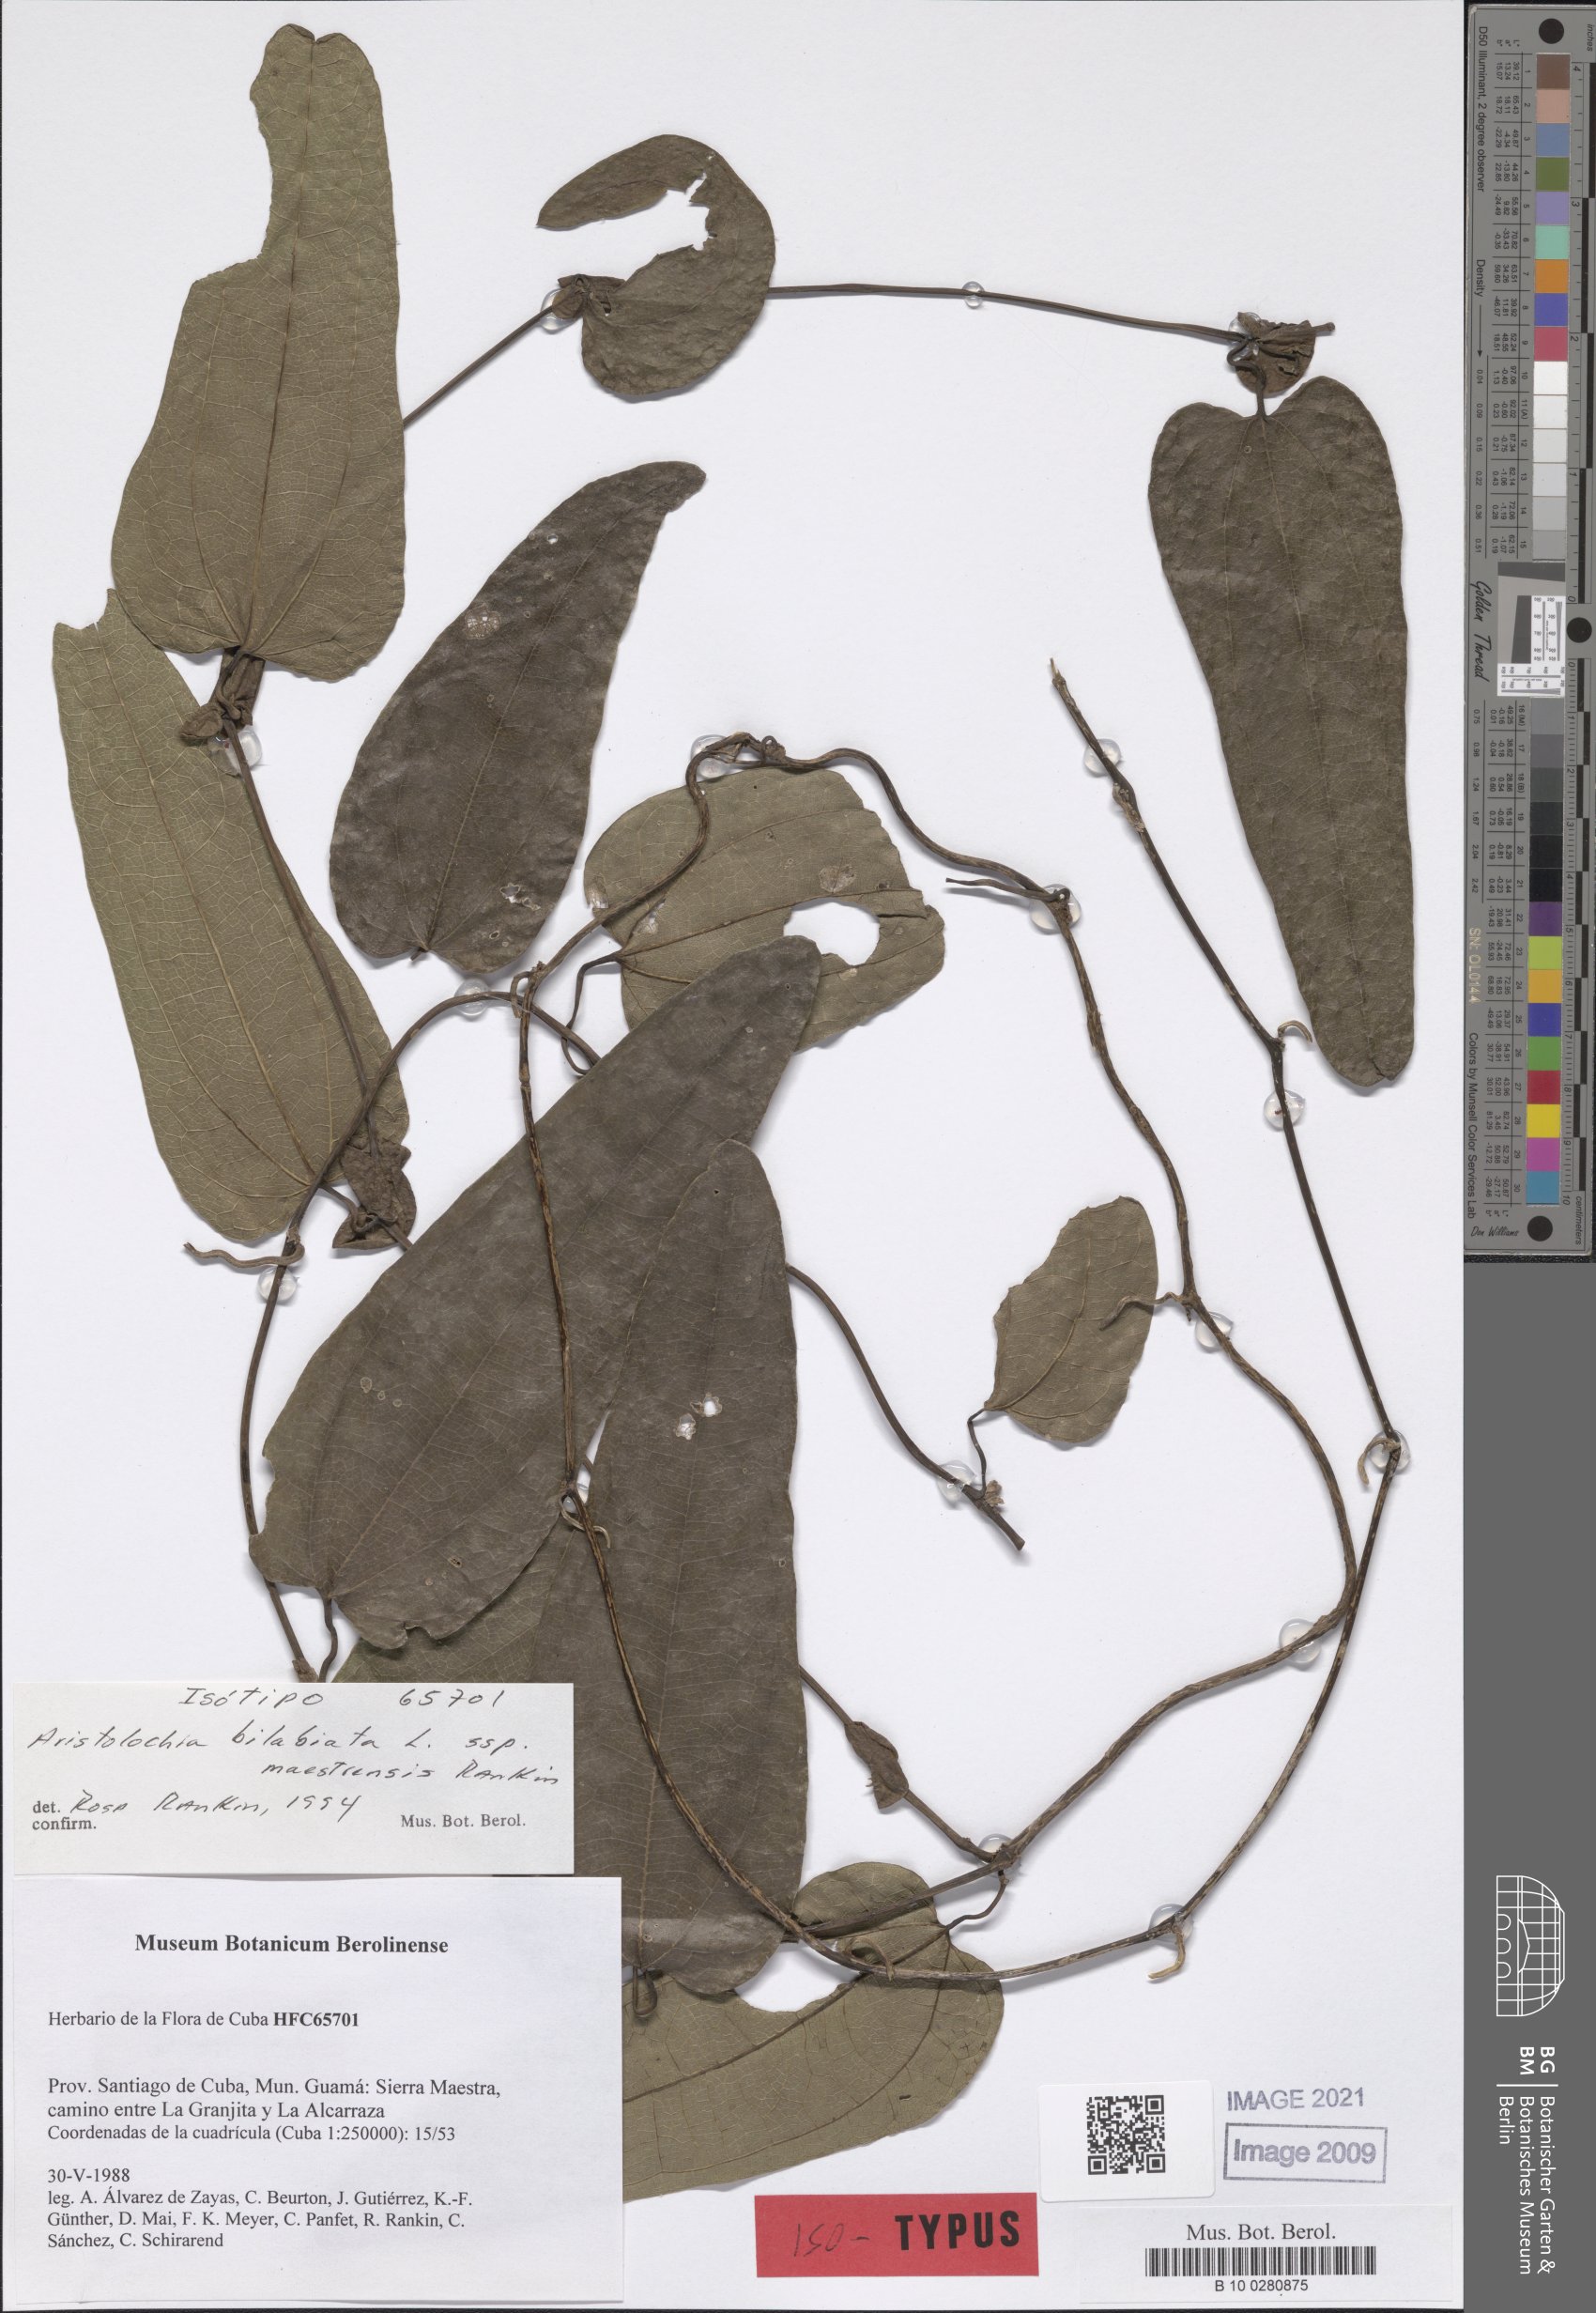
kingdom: Plantae
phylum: Tracheophyta
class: Magnoliopsida
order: Piperales
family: Aristolochiaceae
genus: Aristolochia
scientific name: Aristolochia oblongata
